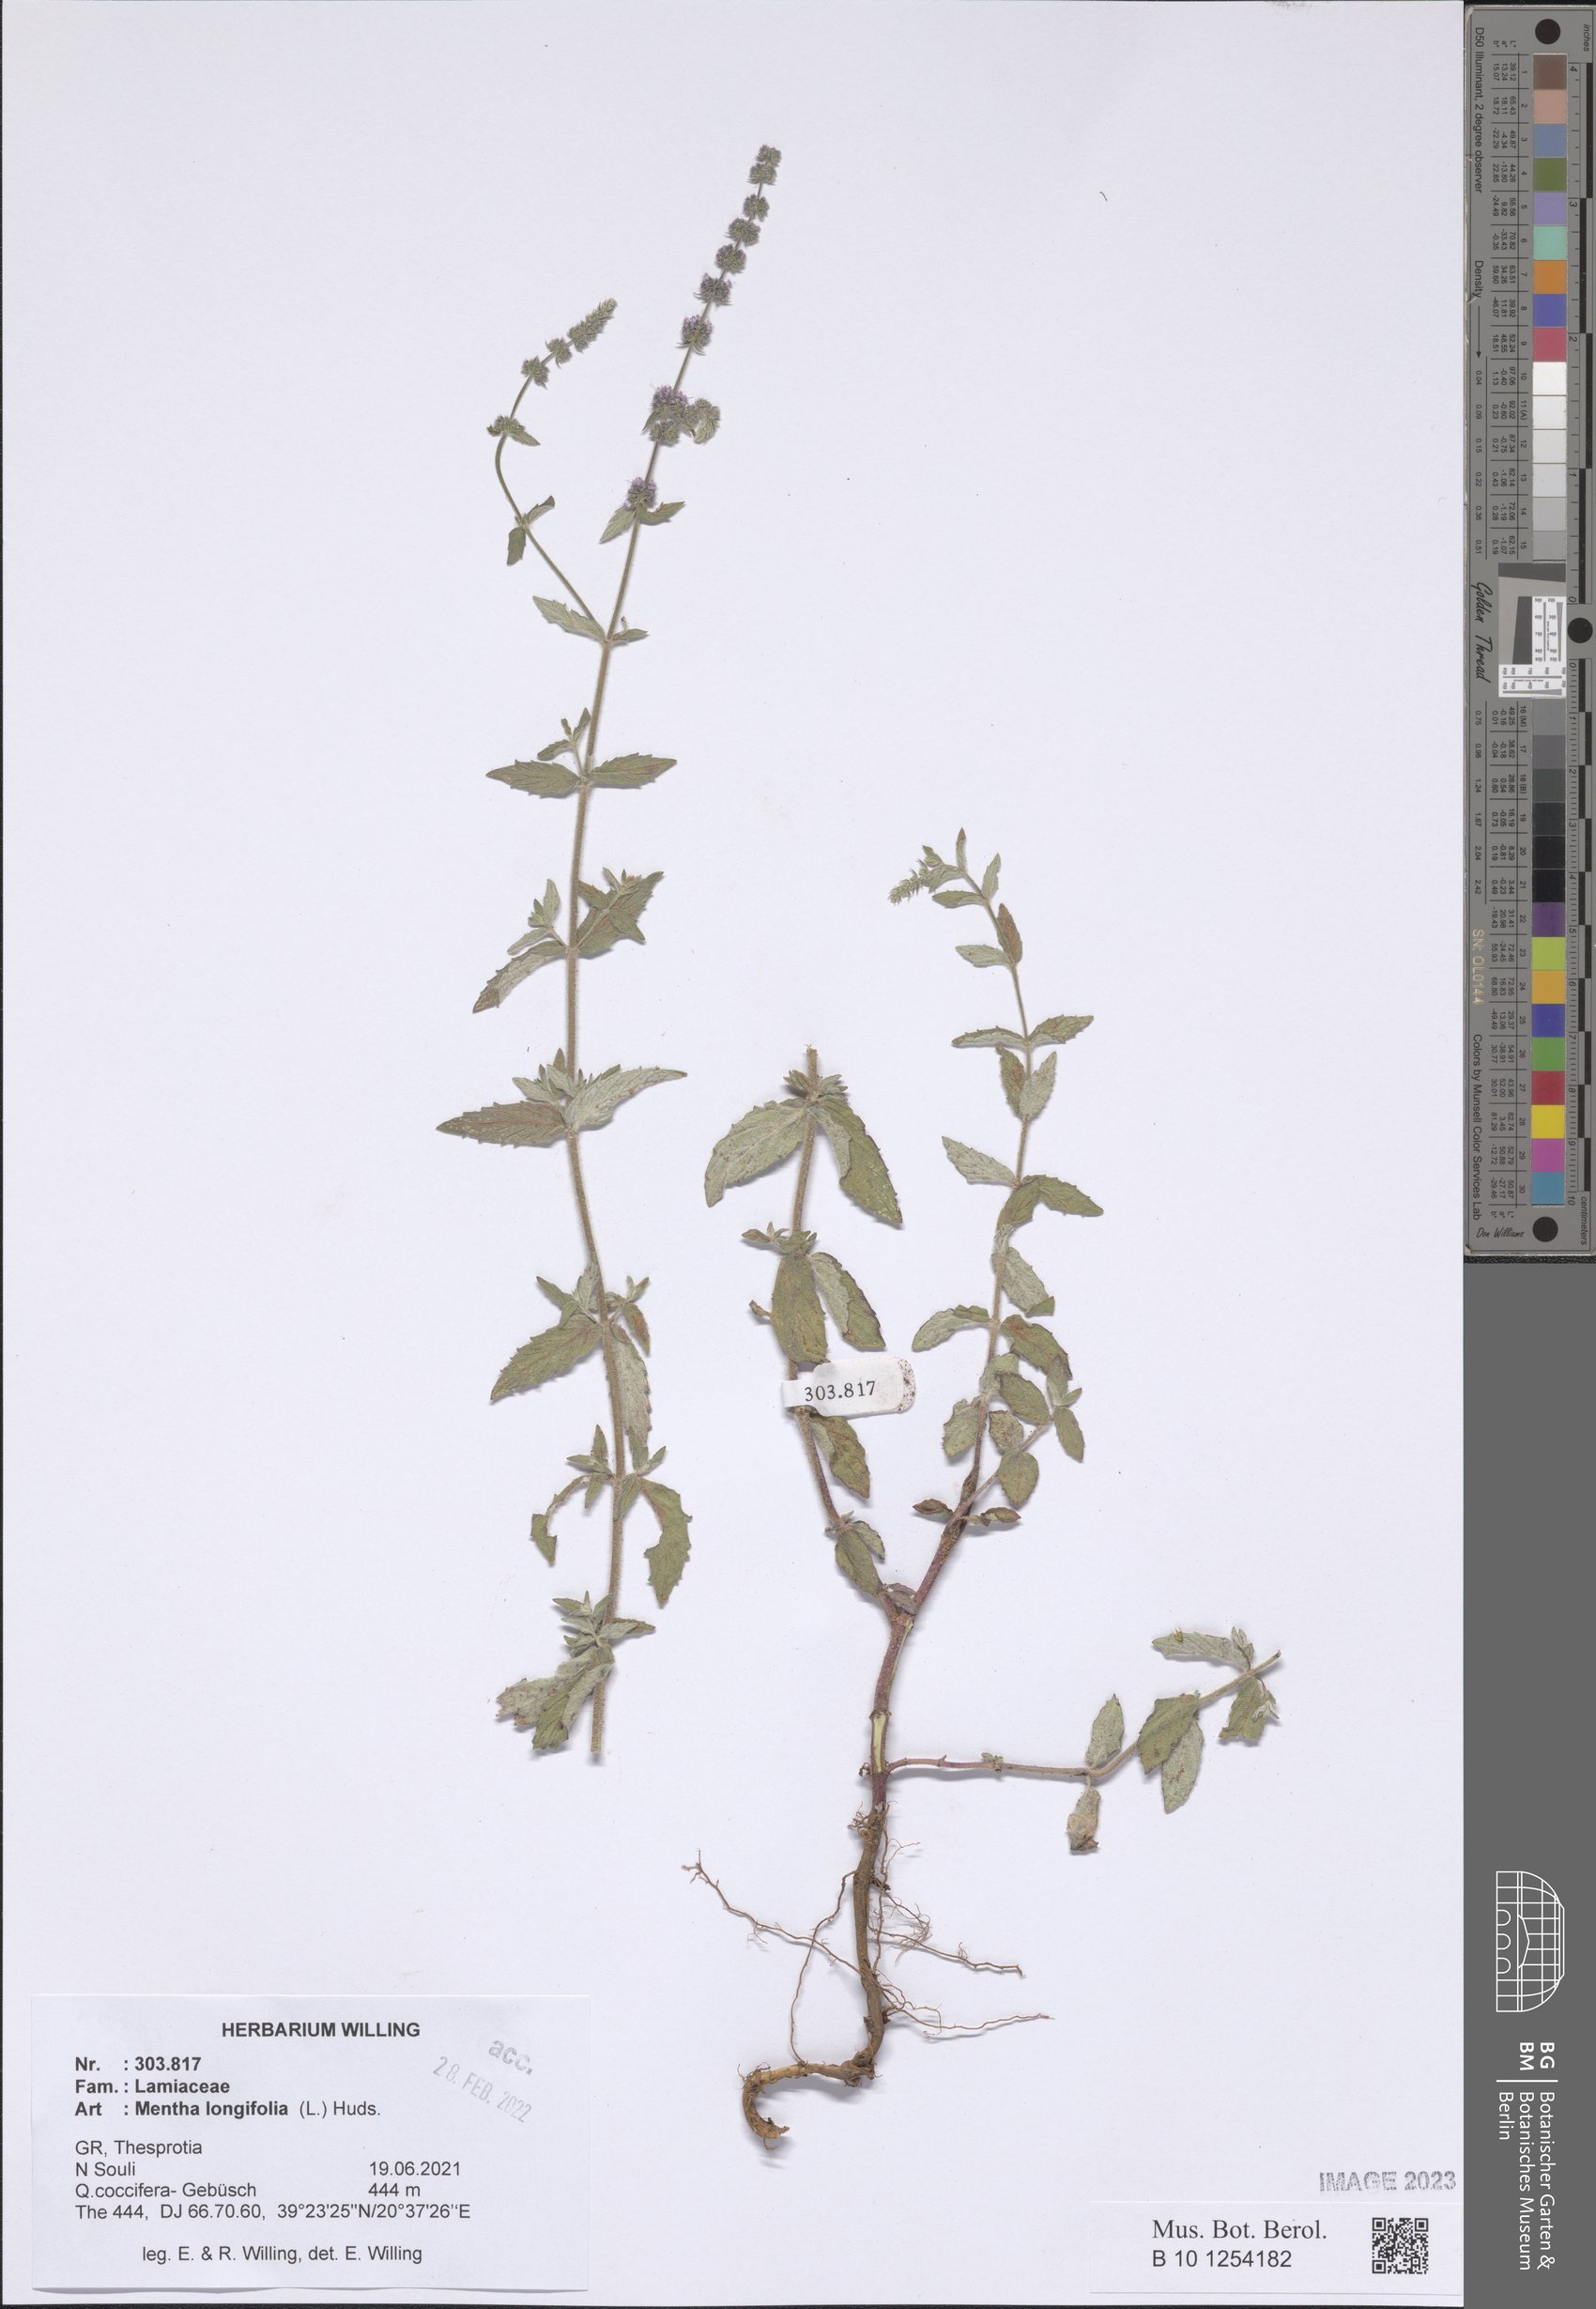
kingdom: Plantae
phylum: Tracheophyta
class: Magnoliopsida
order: Lamiales
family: Lamiaceae
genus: Mentha
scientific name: Mentha longifolia
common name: Horse mint
